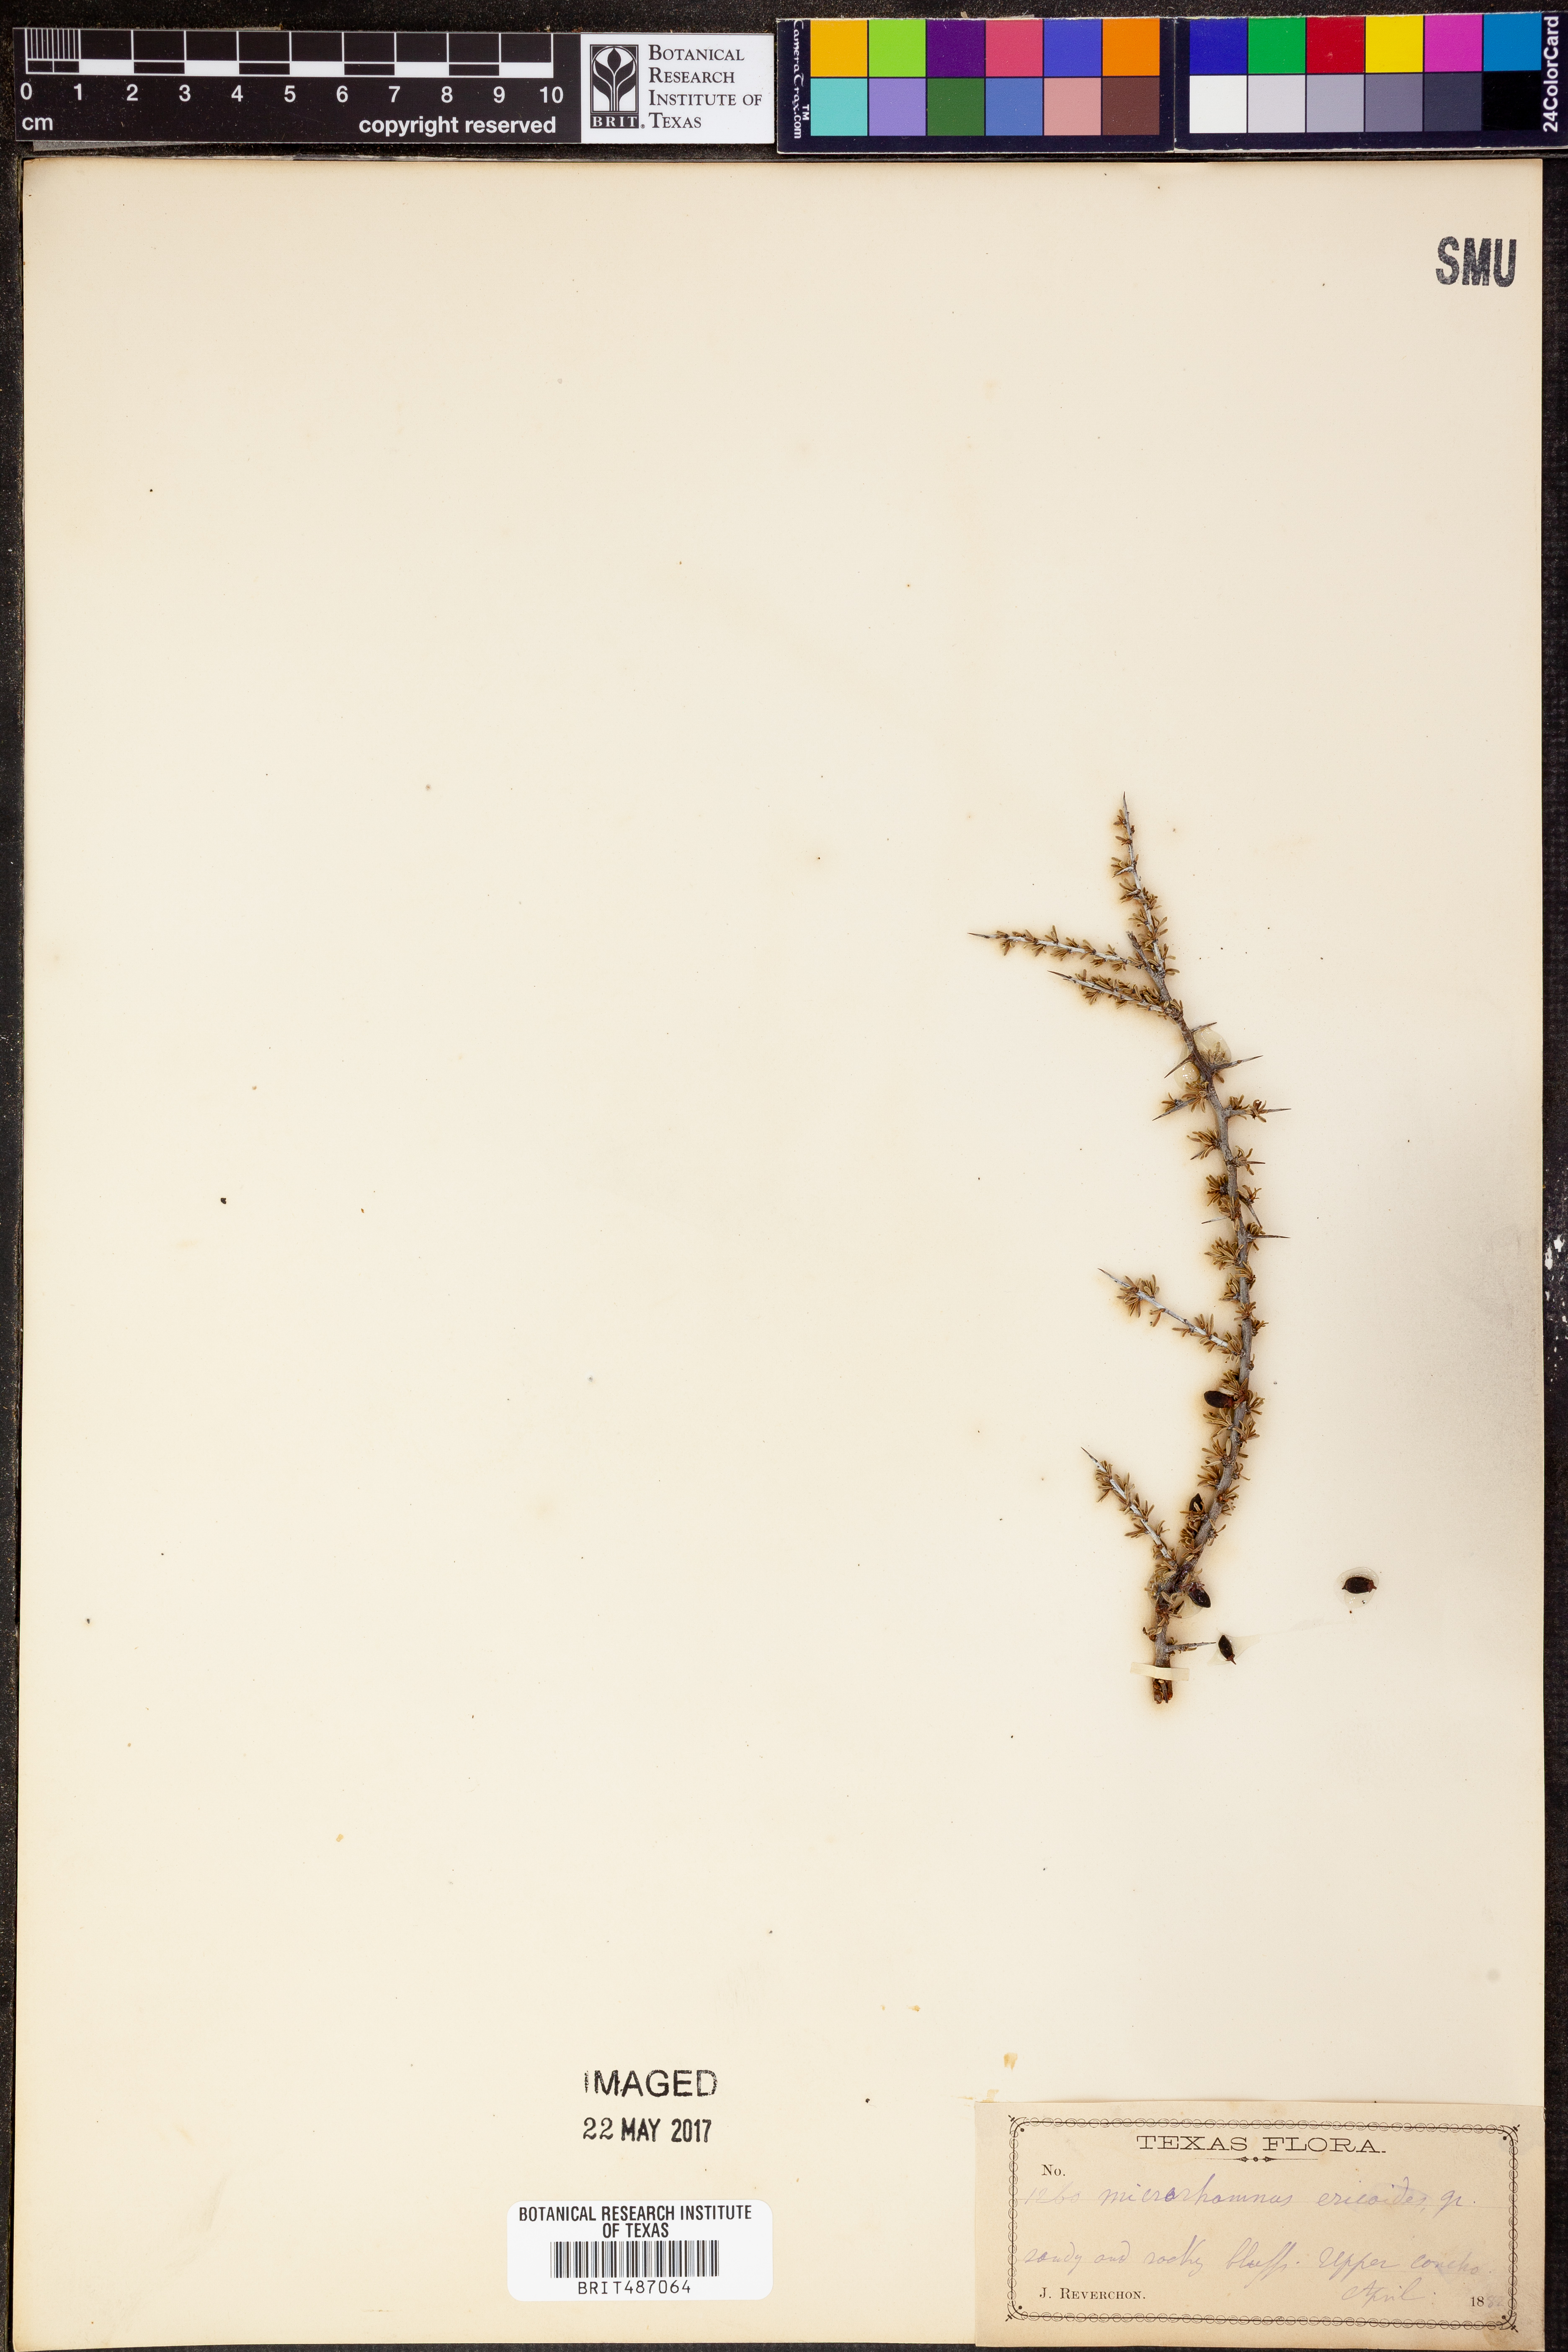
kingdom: Plantae
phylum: Tracheophyta
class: Magnoliopsida
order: Rosales
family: Rhamnaceae
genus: Condalia
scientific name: Condalia ericoides
